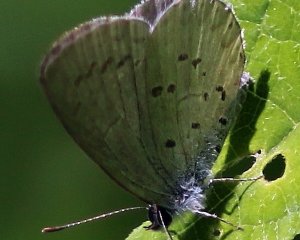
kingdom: Animalia
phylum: Arthropoda
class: Insecta
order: Lepidoptera
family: Lycaenidae
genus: Cyaniris
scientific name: Cyaniris neglecta
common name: Summer Azure
